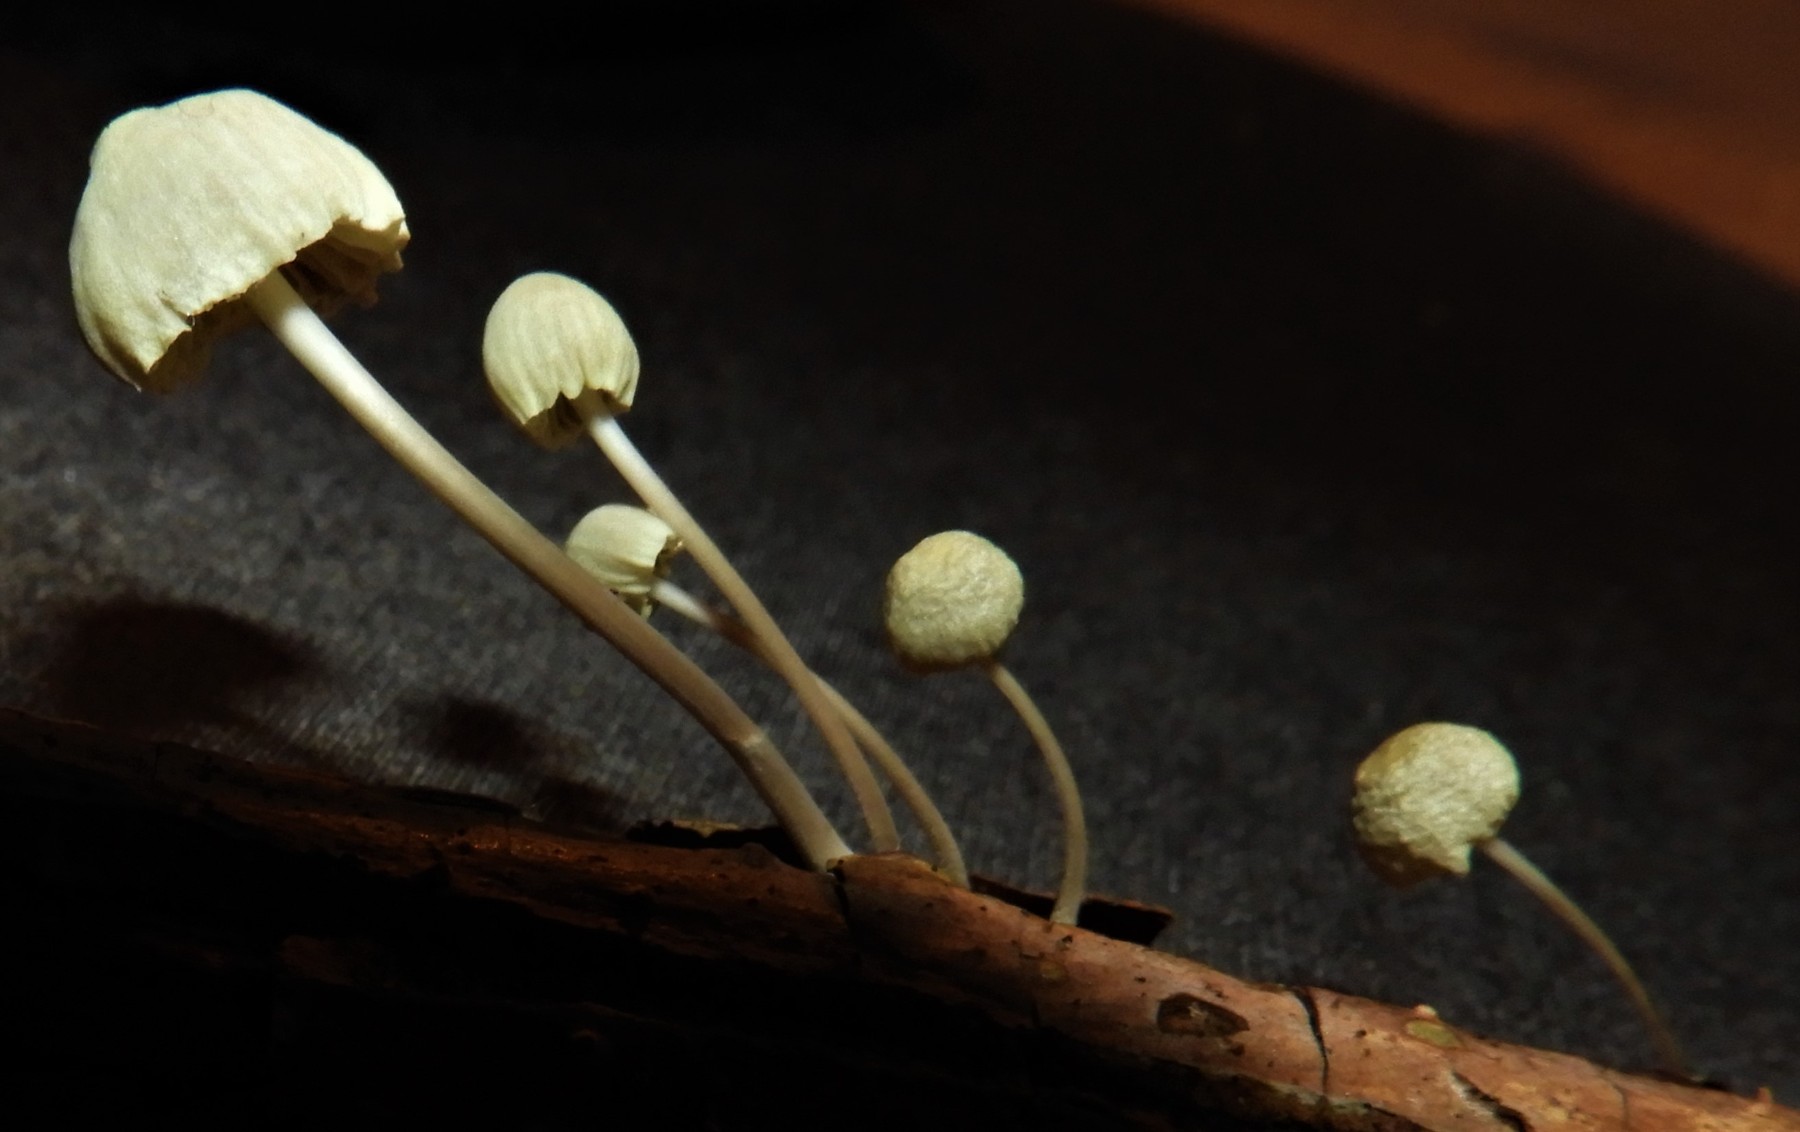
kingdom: Fungi
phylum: Basidiomycota
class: Agaricomycetes
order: Agaricales
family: Mycenaceae
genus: Mycena
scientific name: Mycena arcangeliana
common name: oliven-huesvamp
